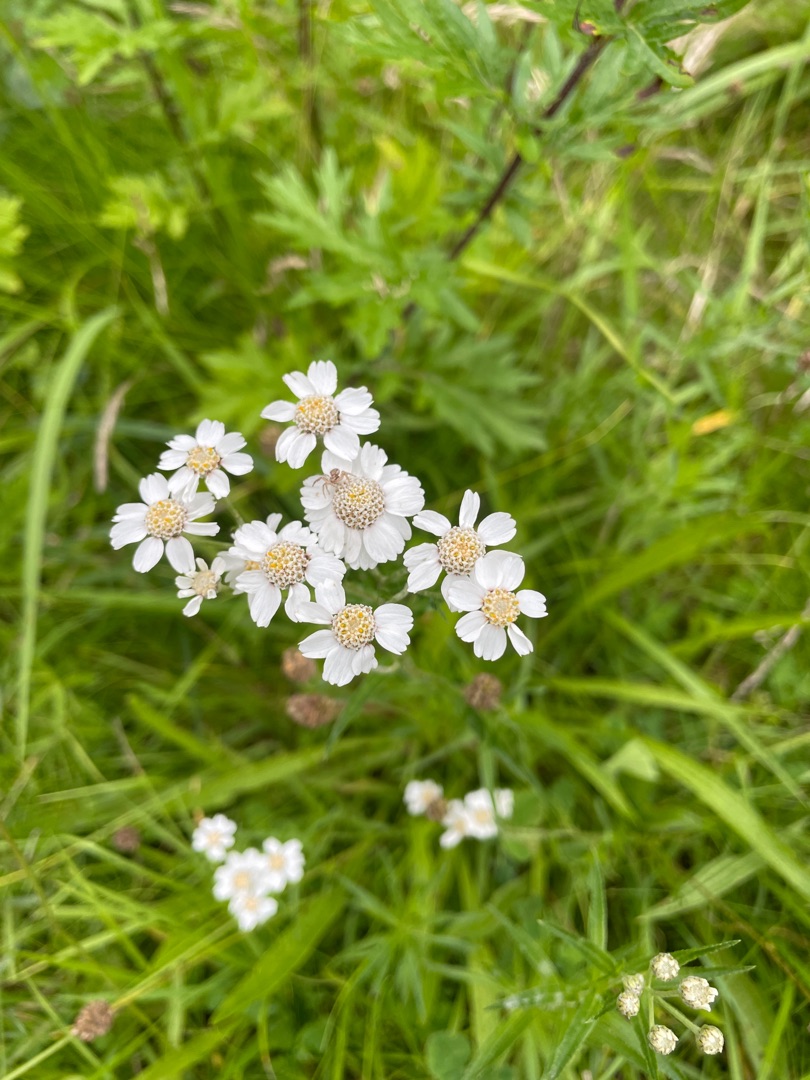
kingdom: Plantae
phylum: Tracheophyta
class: Magnoliopsida
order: Asterales
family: Asteraceae
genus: Achillea
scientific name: Achillea ptarmica
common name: Nyse-røllike
